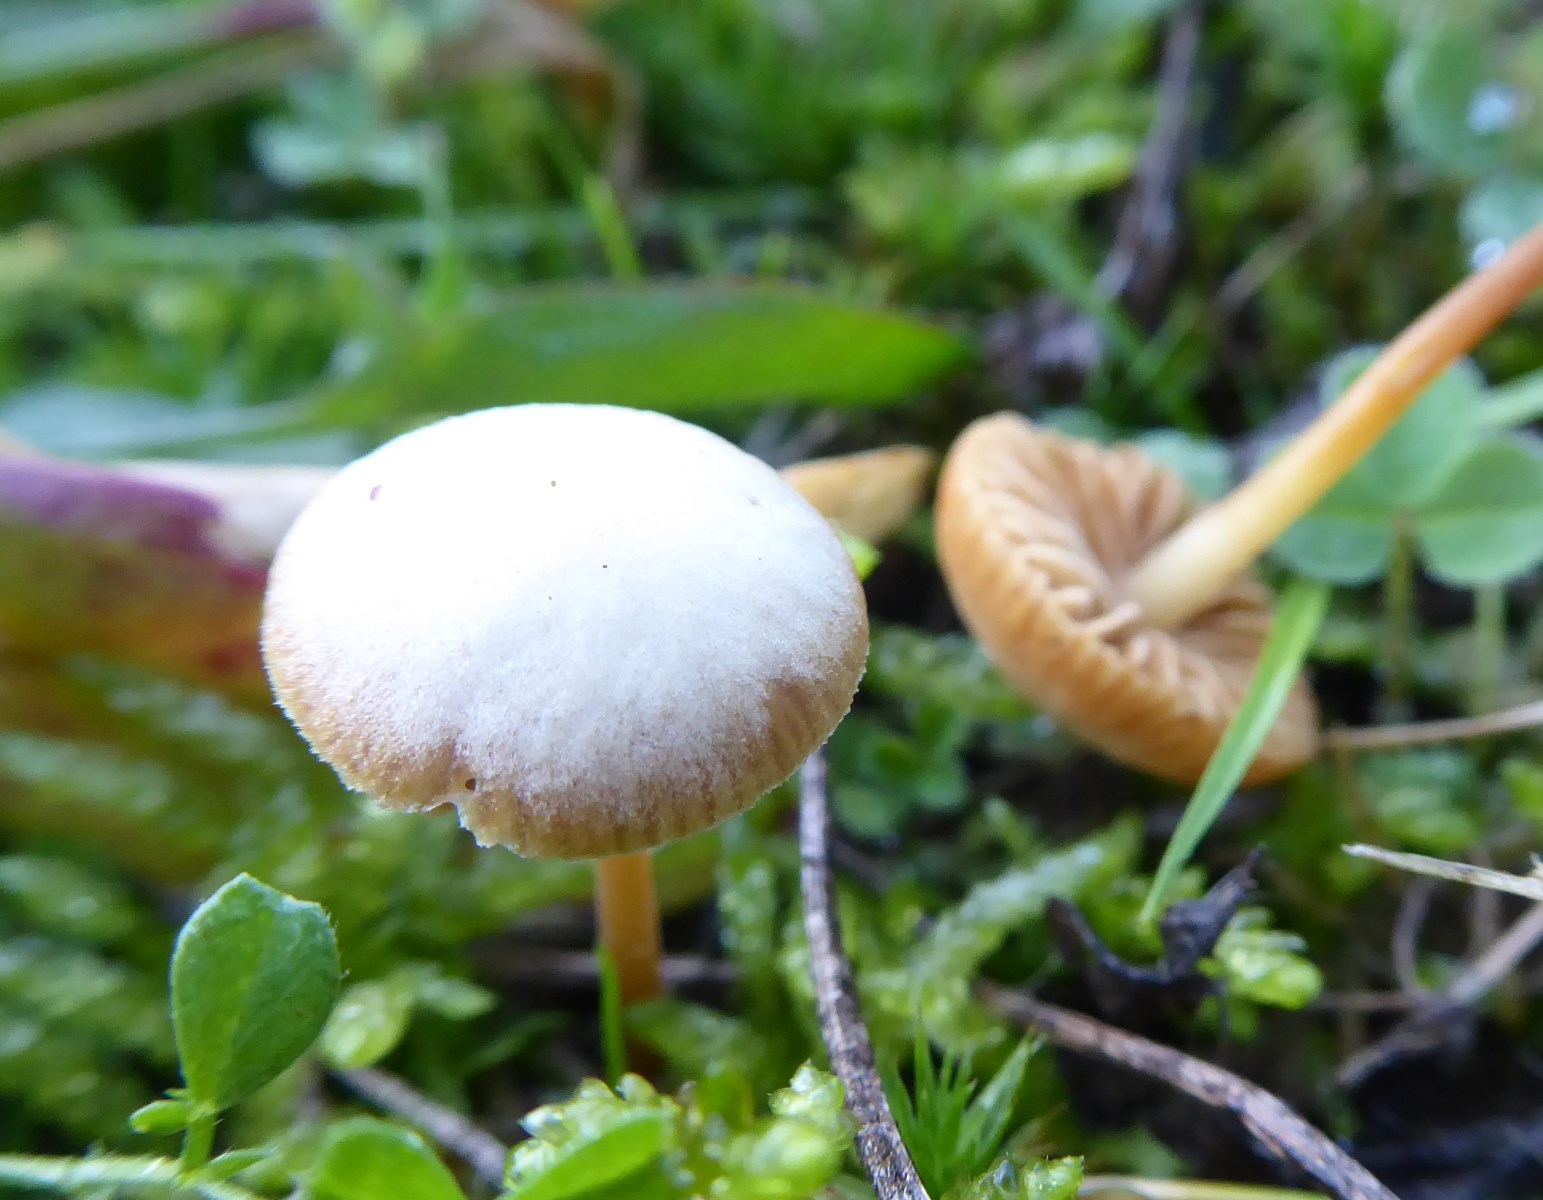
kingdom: Fungi
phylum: Basidiomycota
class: Agaricomycetes
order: Agaricales
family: Hymenogastraceae
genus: Galerina
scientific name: Galerina
